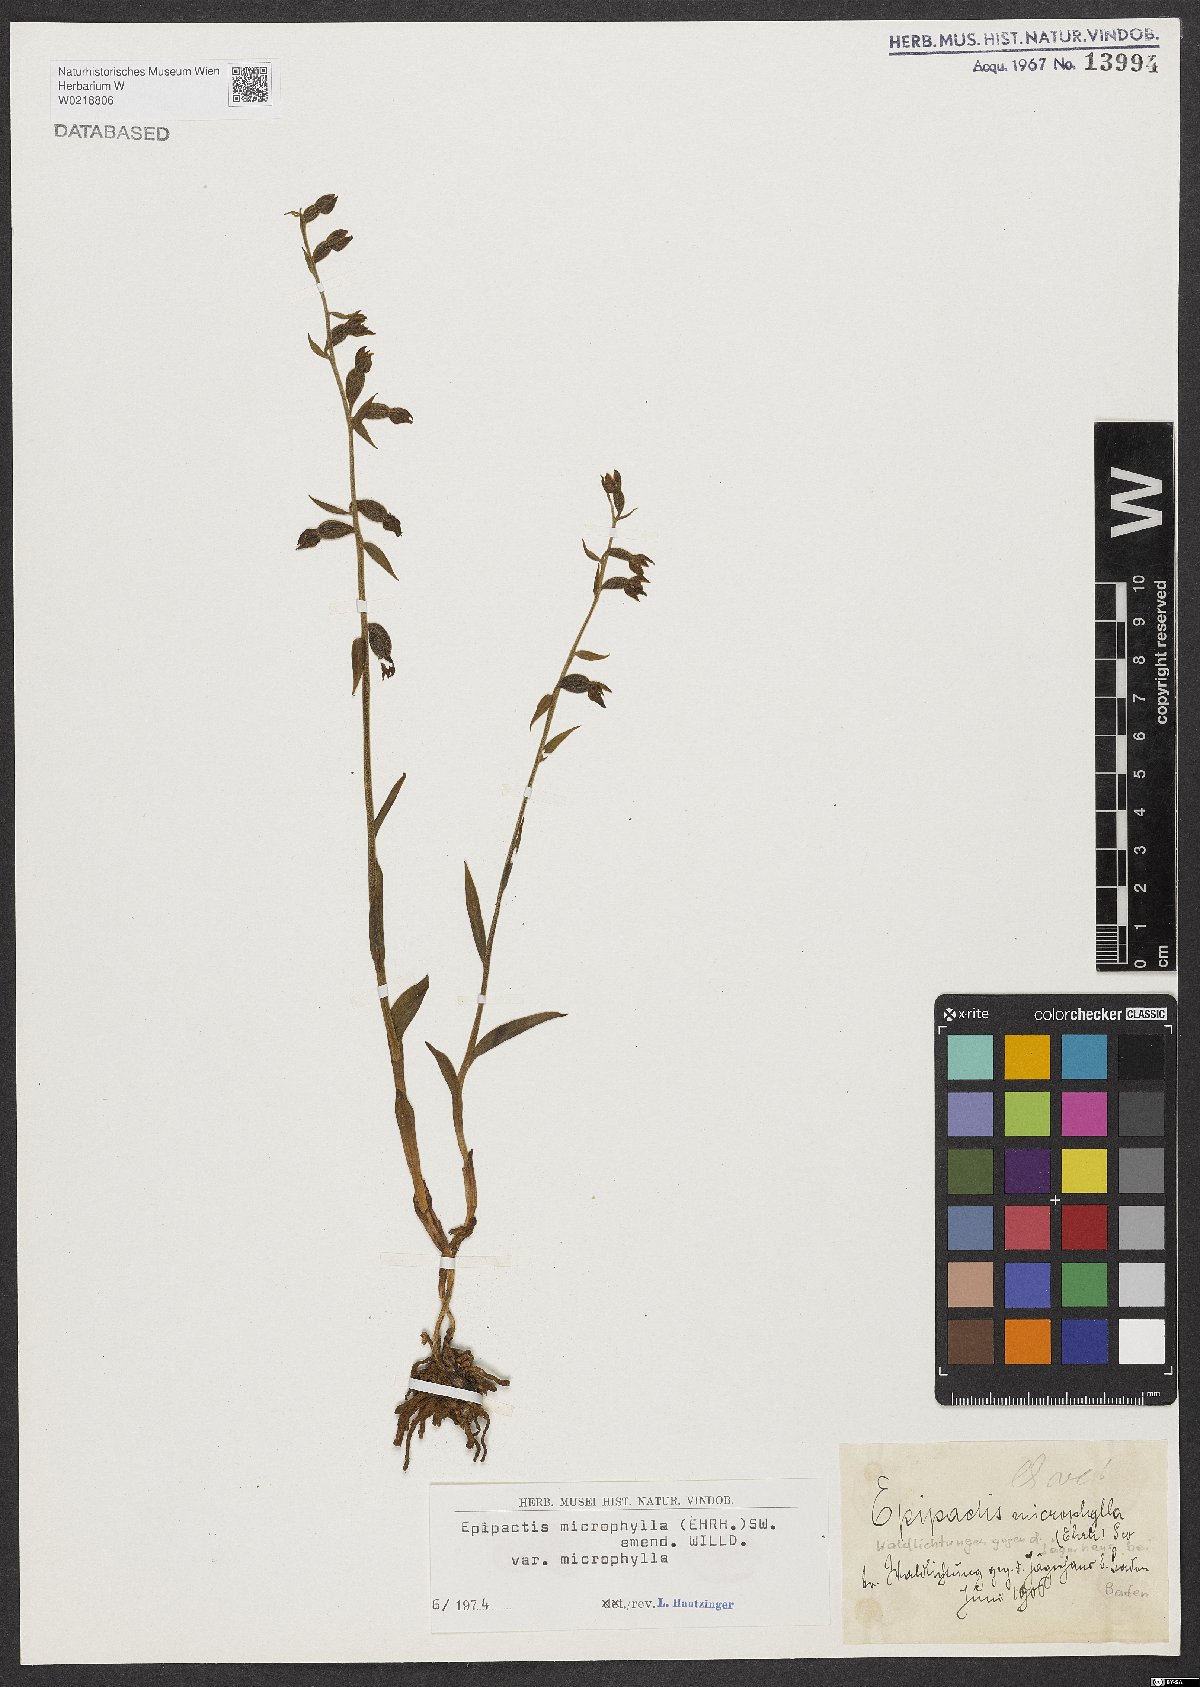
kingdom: Plantae
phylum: Tracheophyta
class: Liliopsida
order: Asparagales
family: Orchidaceae
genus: Epipactis
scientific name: Epipactis microphylla
